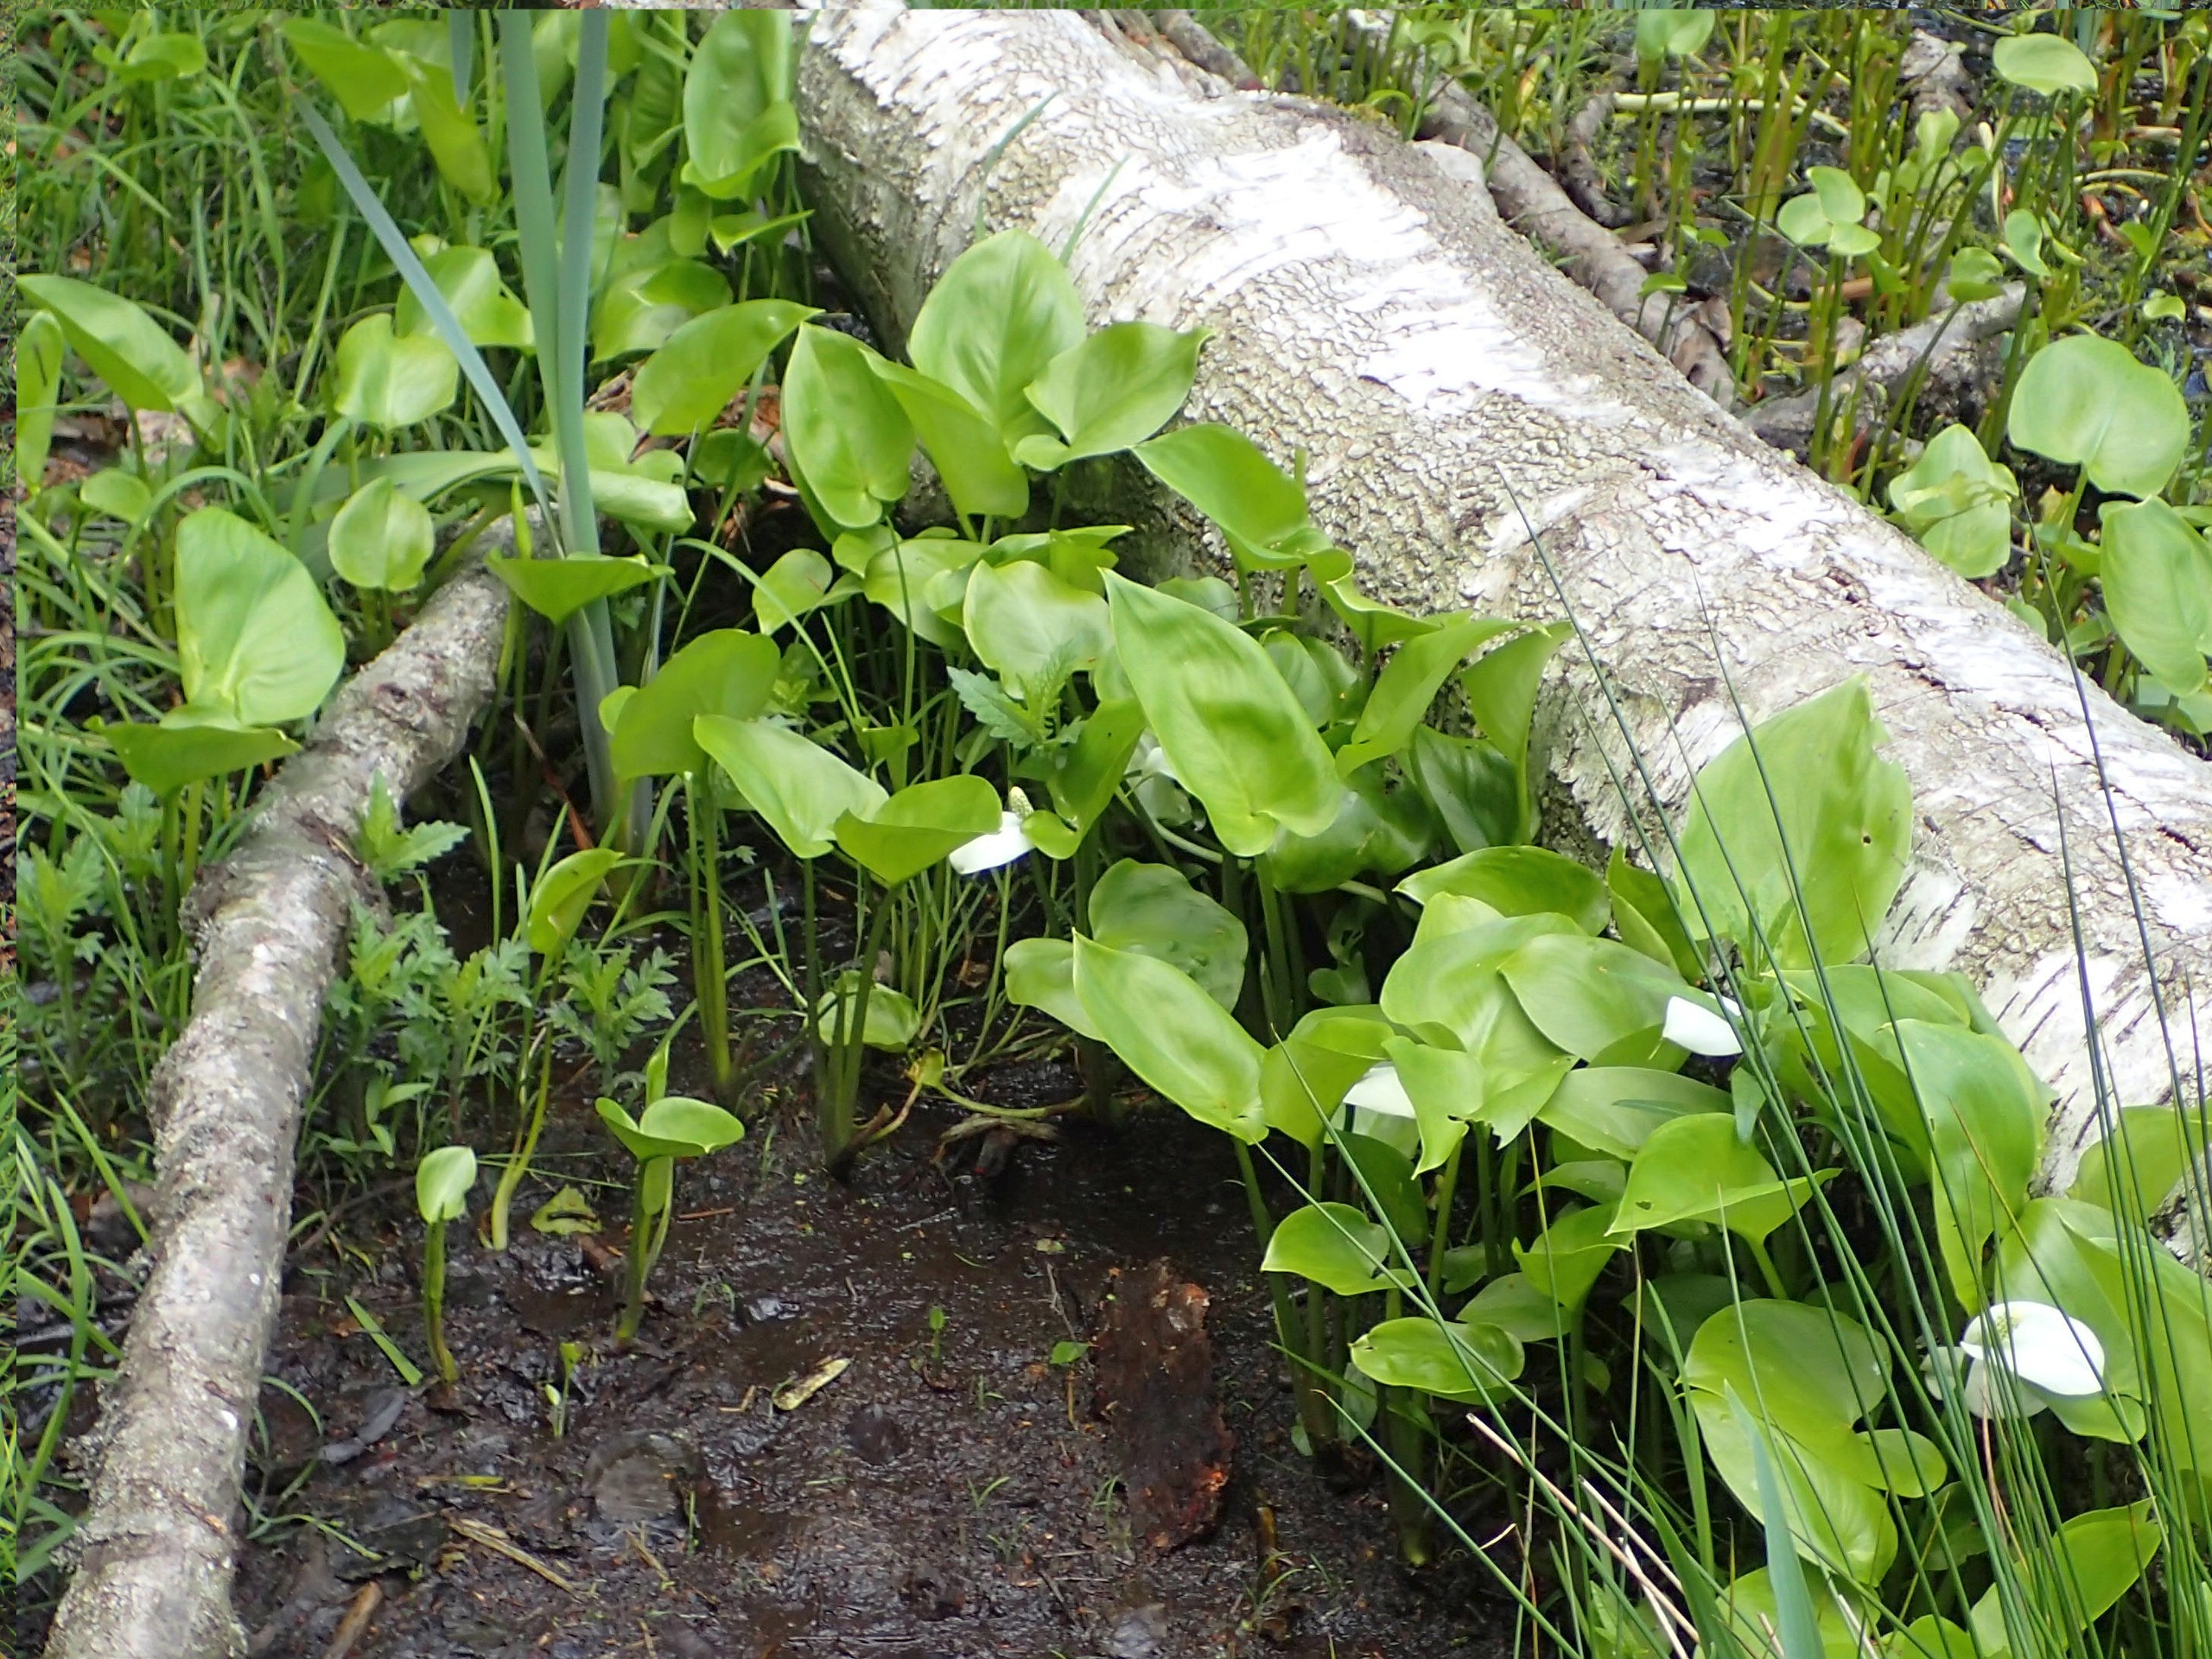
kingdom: Plantae
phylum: Tracheophyta
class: Liliopsida
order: Alismatales
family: Araceae
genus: Calla
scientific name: Calla palustris
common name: Kærmysse
